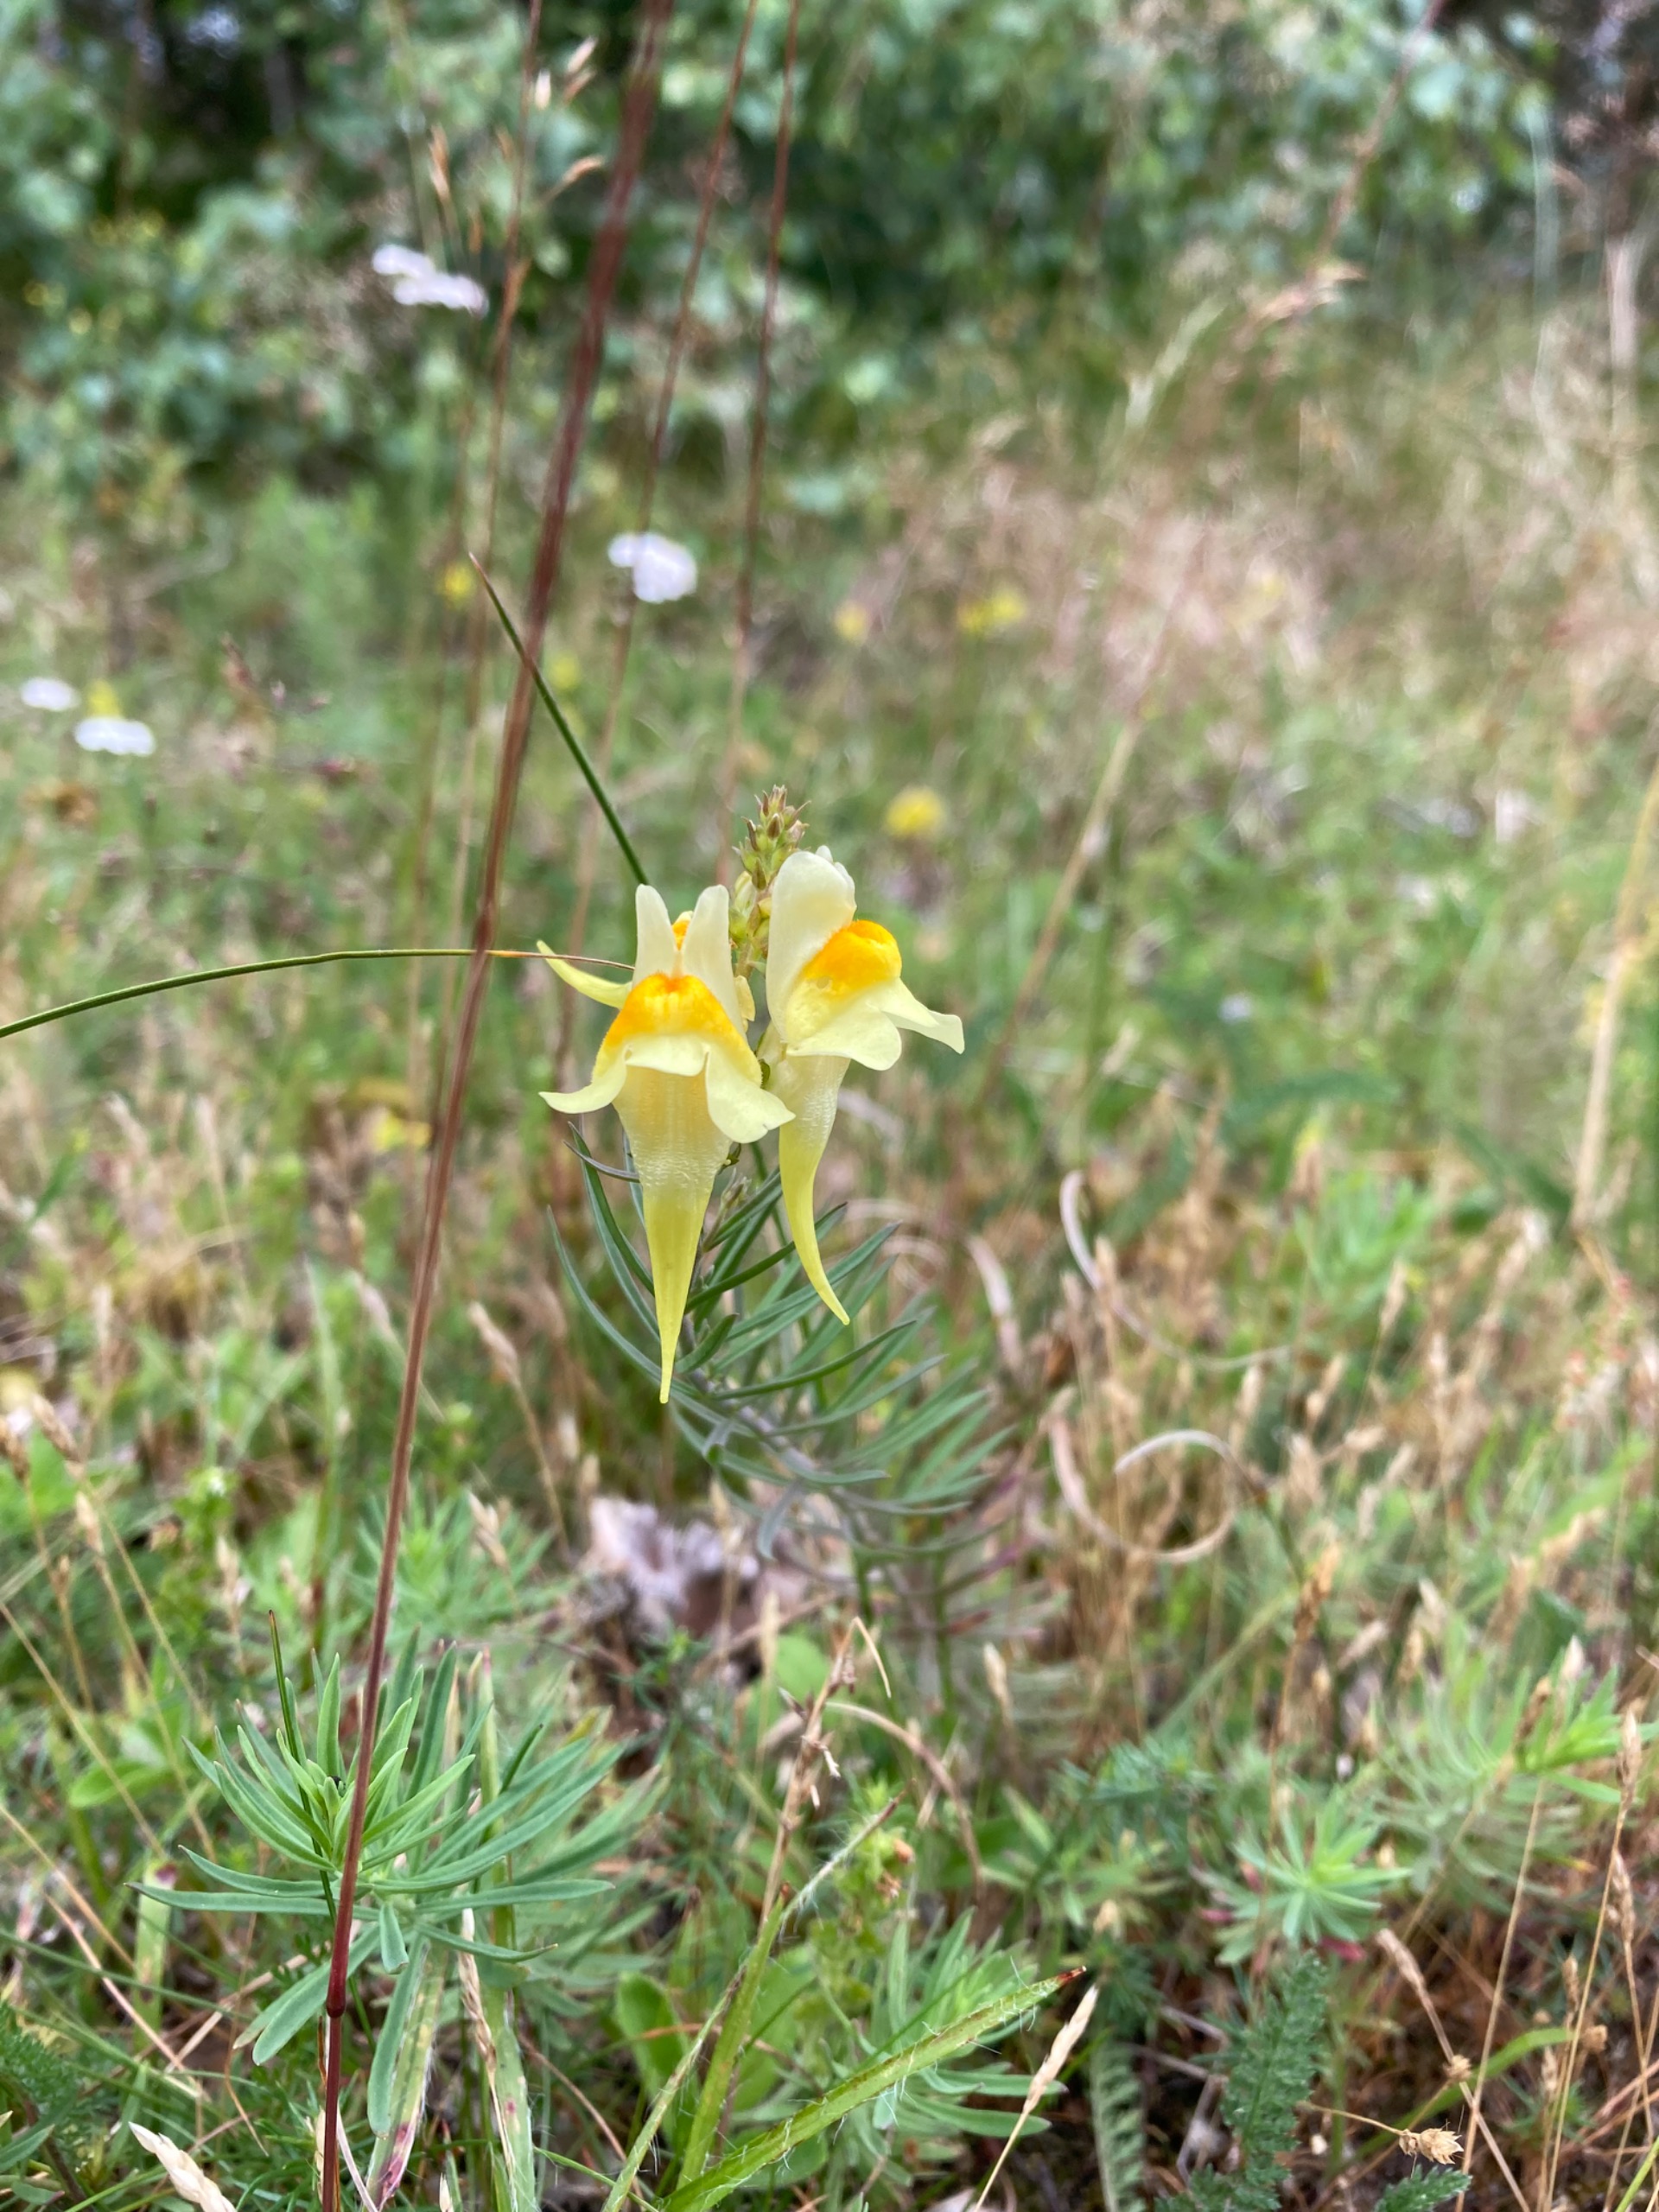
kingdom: Plantae
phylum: Tracheophyta
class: Magnoliopsida
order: Lamiales
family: Plantaginaceae
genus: Linaria
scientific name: Linaria vulgaris
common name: Almindelig torskemund
